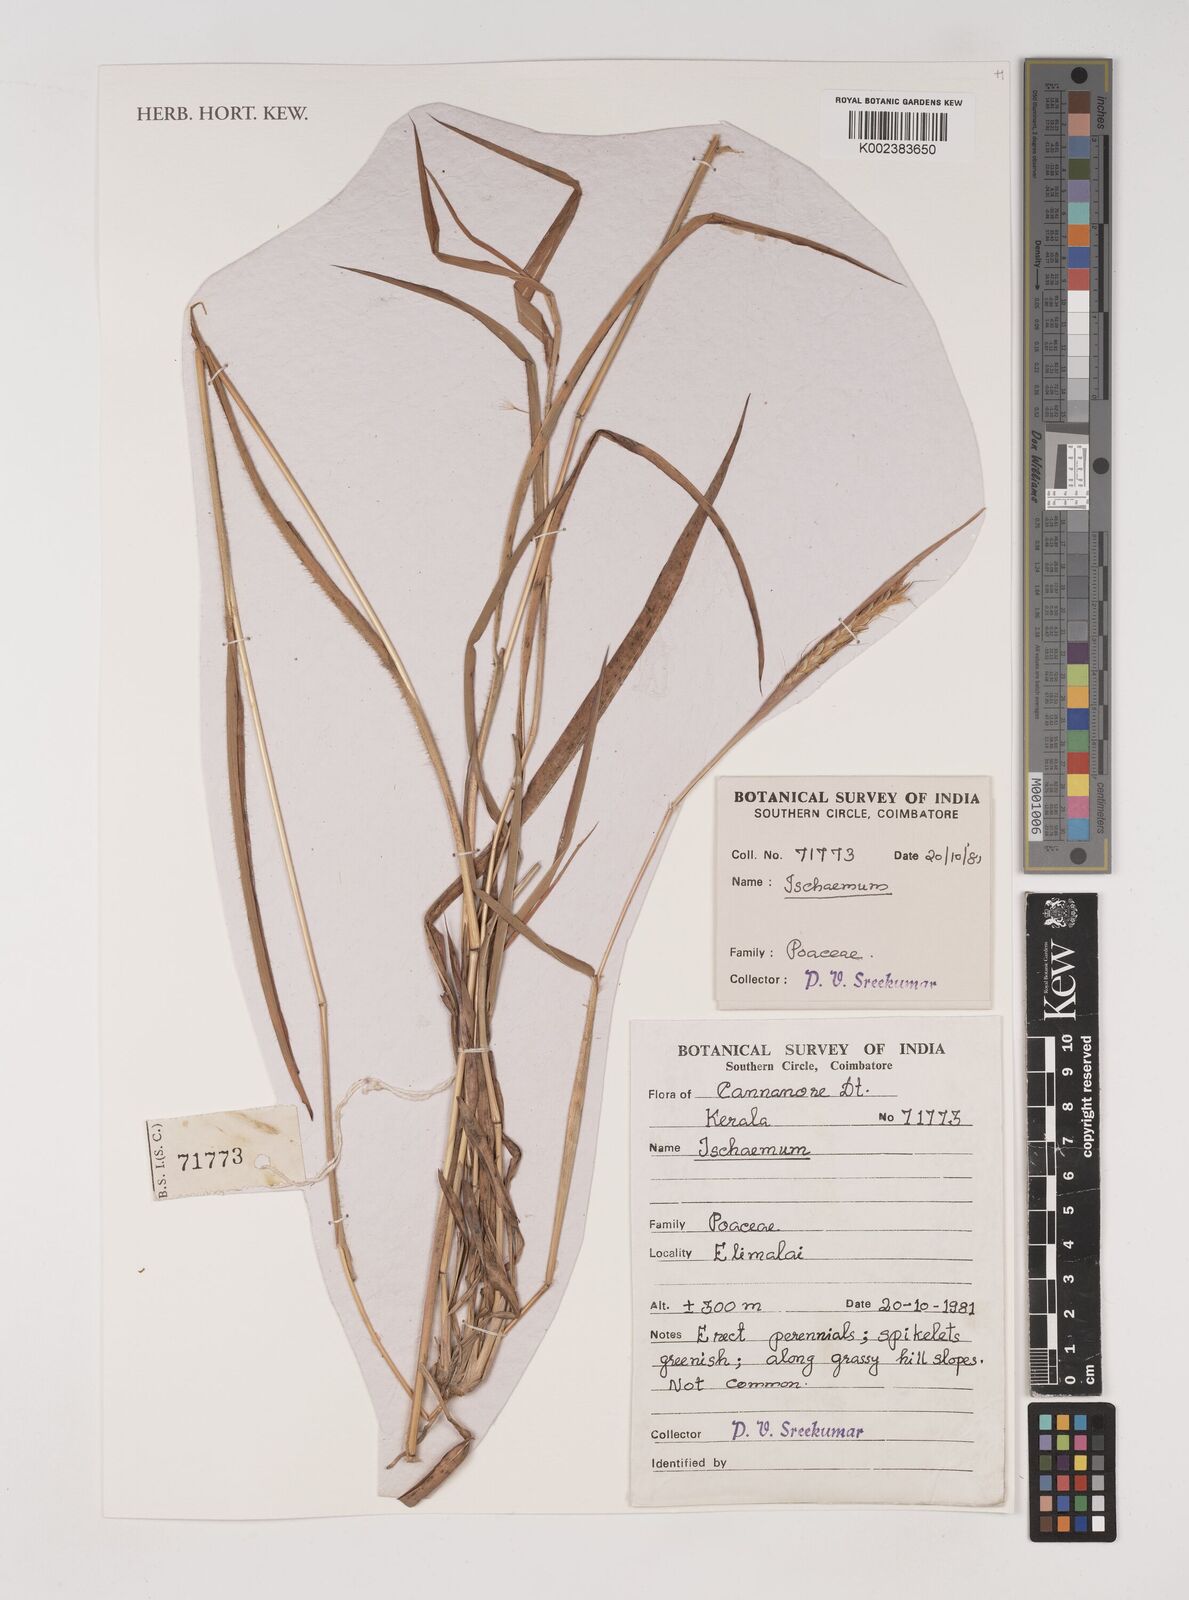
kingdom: Plantae
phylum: Tracheophyta
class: Liliopsida
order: Poales
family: Poaceae
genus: Ischaemum
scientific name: Ischaemum
